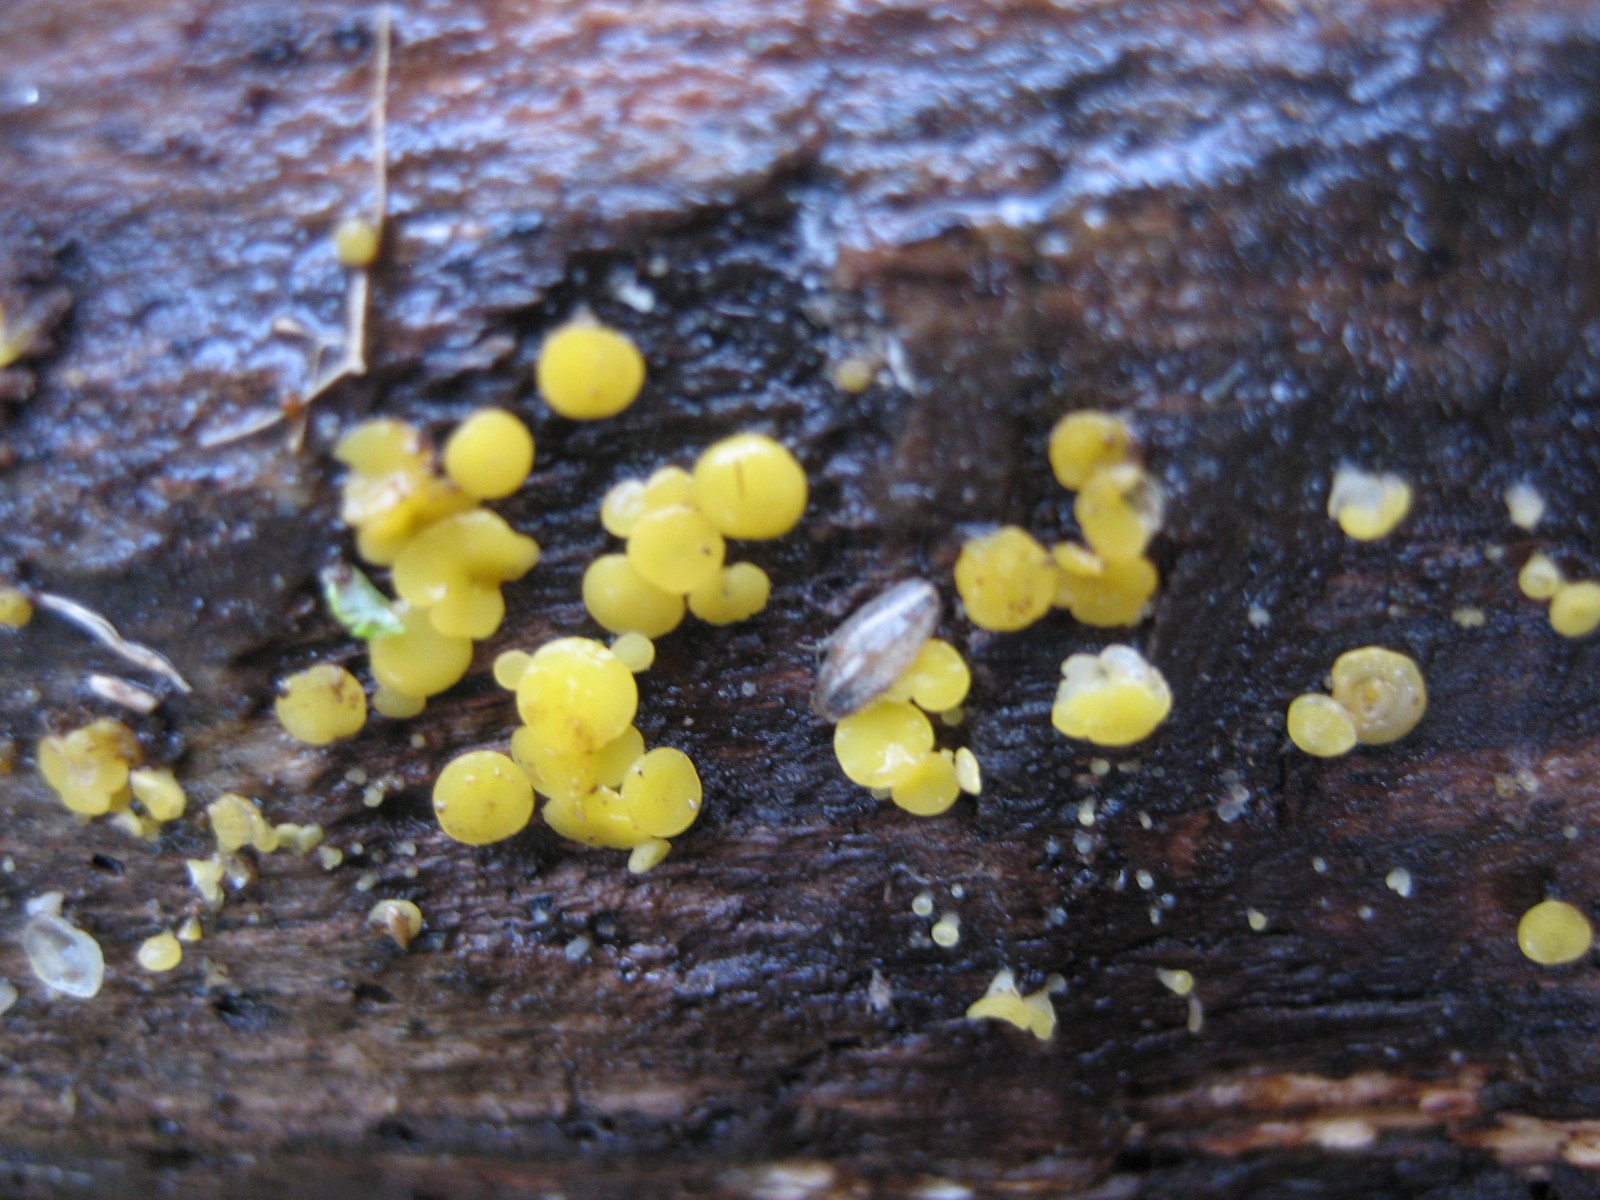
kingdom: Fungi
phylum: Ascomycota
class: Leotiomycetes
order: Helotiales
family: Pezizellaceae
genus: Calycina
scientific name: Calycina citrina
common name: almindelig gulskive
